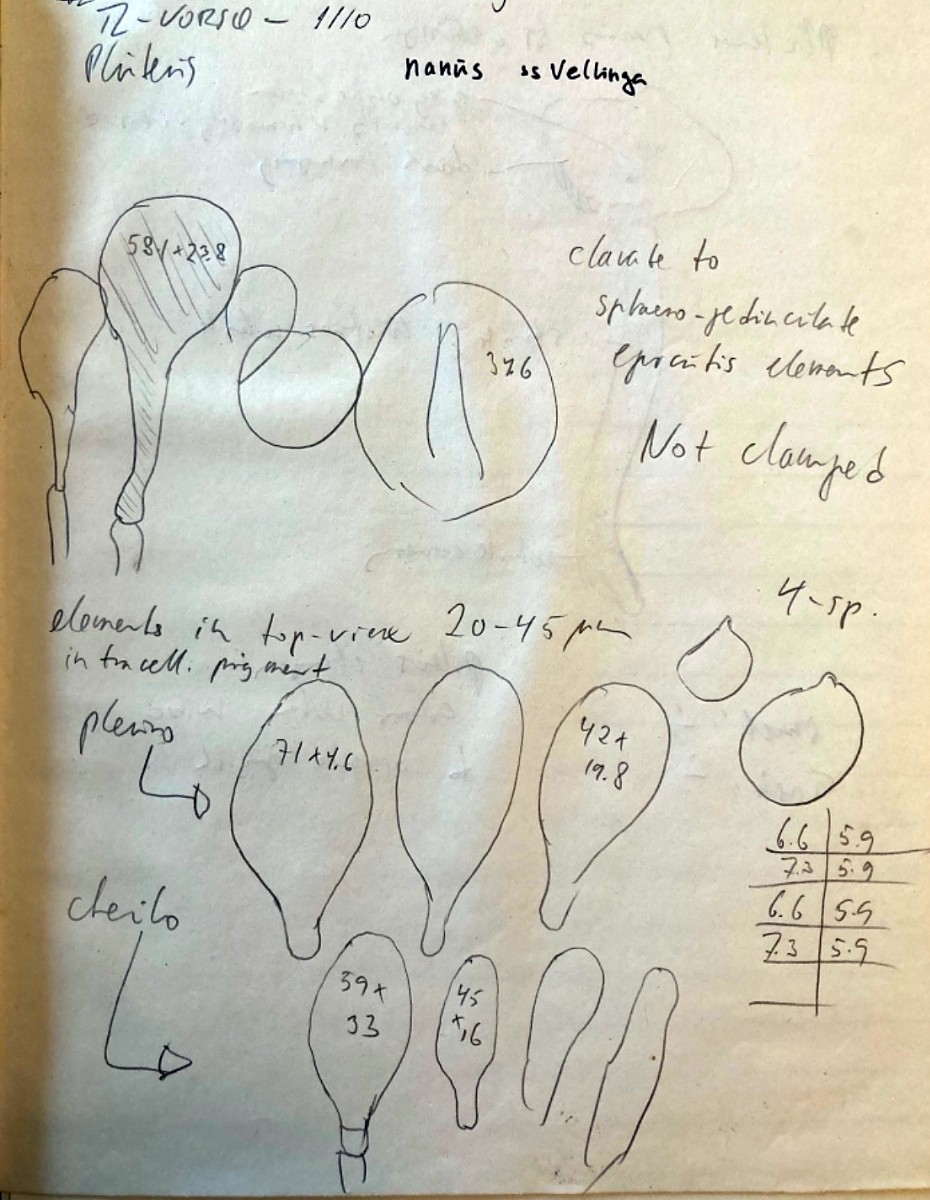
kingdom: Fungi
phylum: Basidiomycota
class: Agaricomycetes
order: Agaricales
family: Pluteaceae
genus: Pluteus
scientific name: Pluteus
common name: pudret skærmhat
